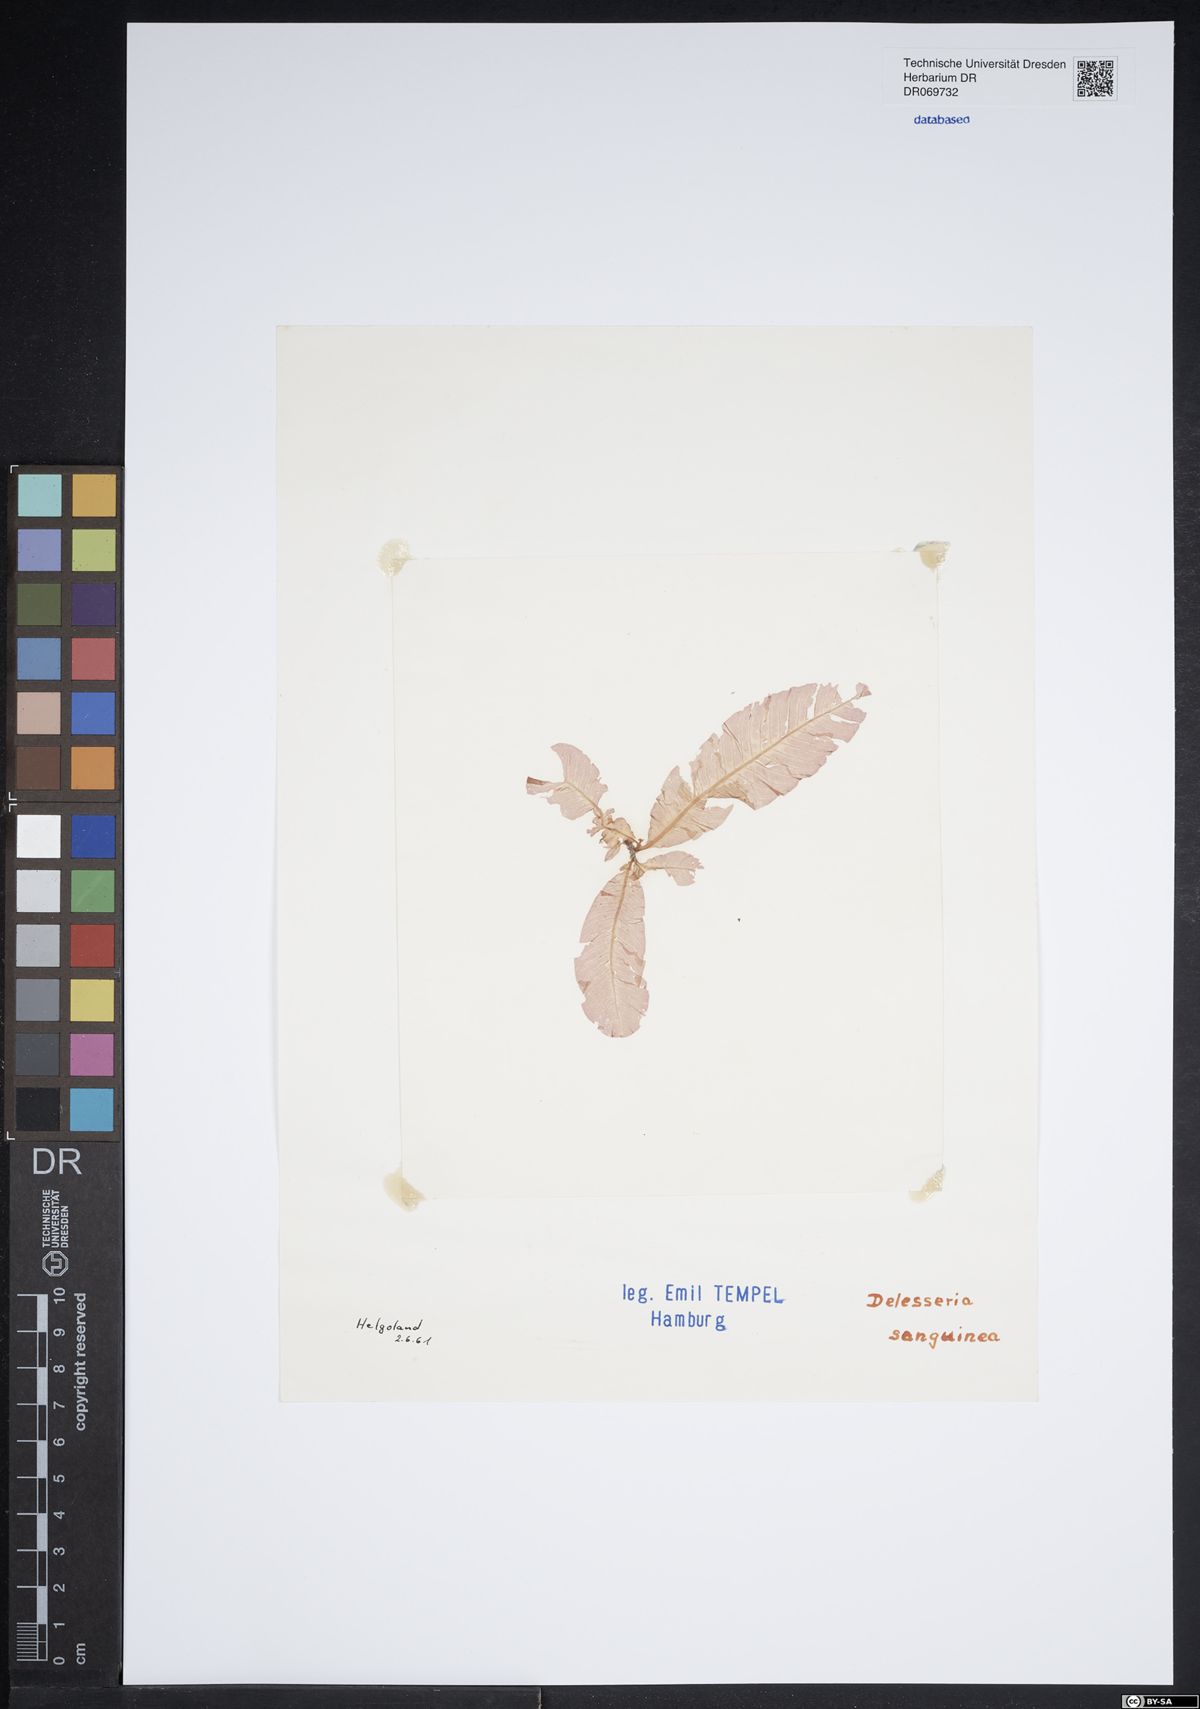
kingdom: Plantae
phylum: Rhodophyta
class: Florideophyceae
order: Ceramiales
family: Delesseriaceae
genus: Delesseria
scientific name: Delesseria sanguinea
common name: Sea beech
